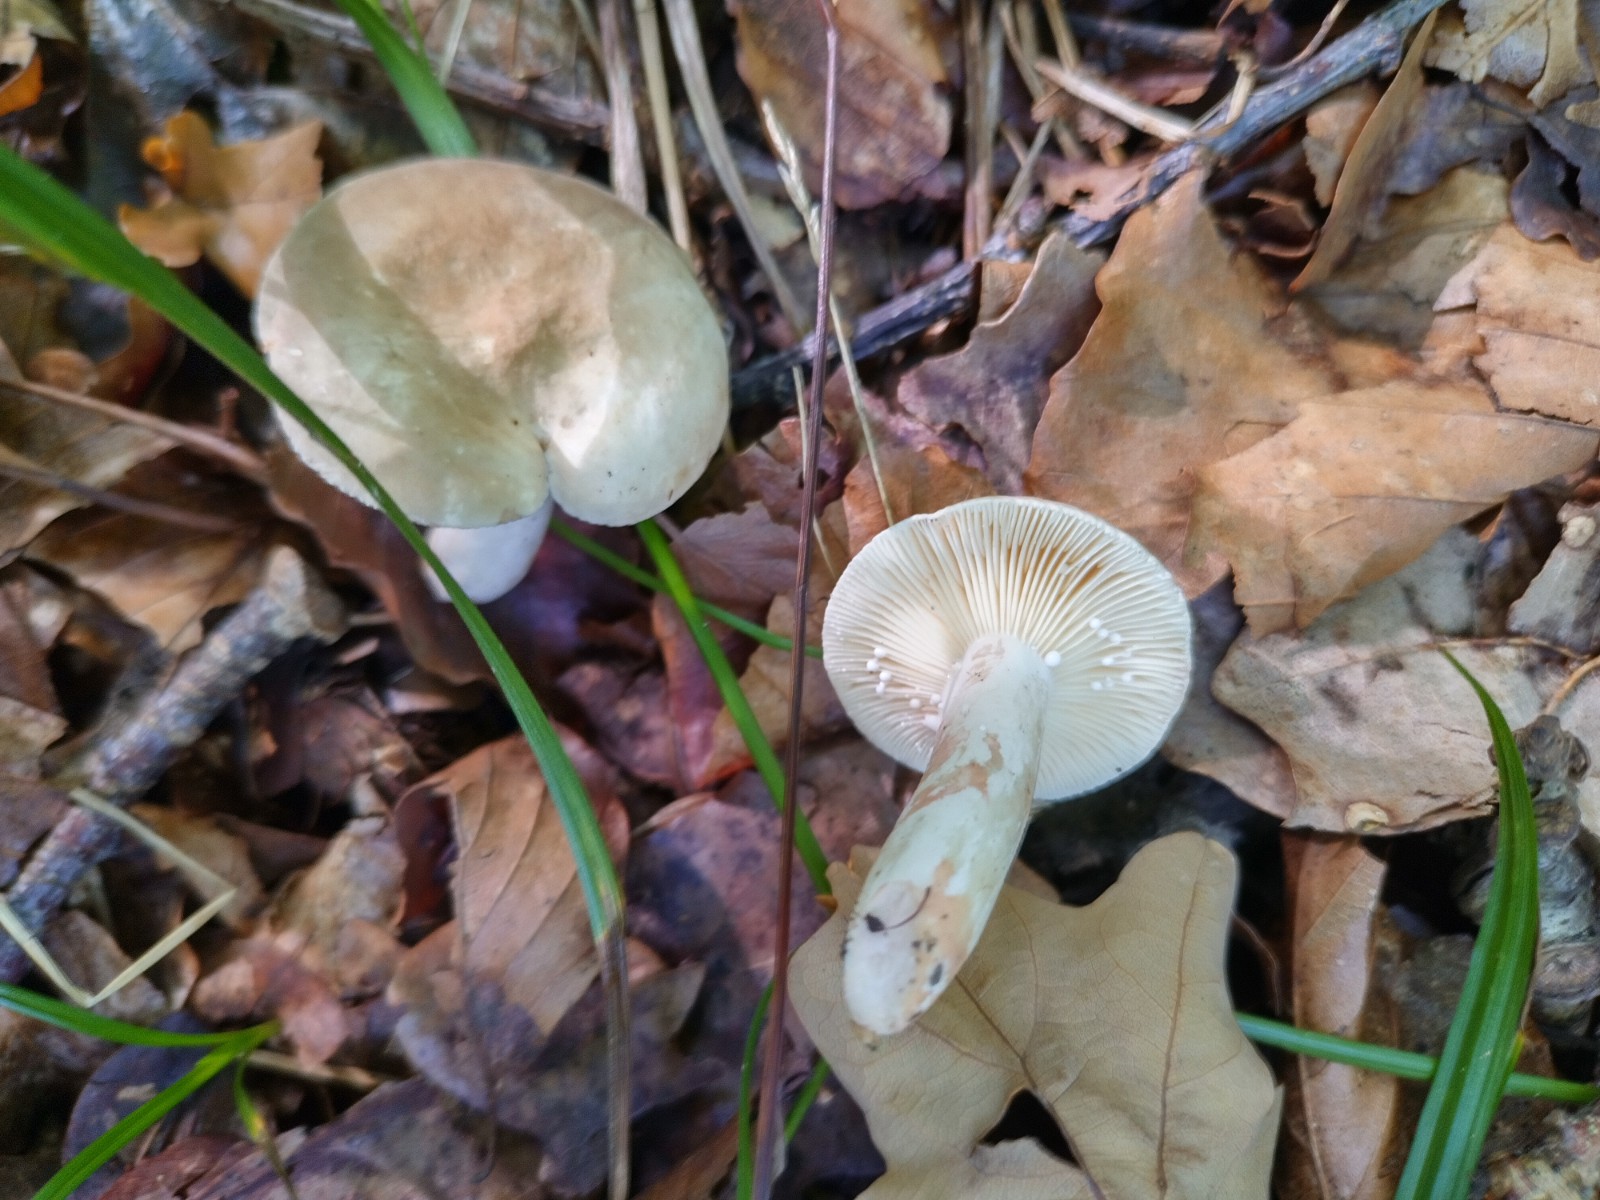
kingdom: Fungi
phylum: Basidiomycota
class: Agaricomycetes
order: Russulales
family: Russulaceae
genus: Lactarius
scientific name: Lactarius azonites
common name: røggrå mælkehat
